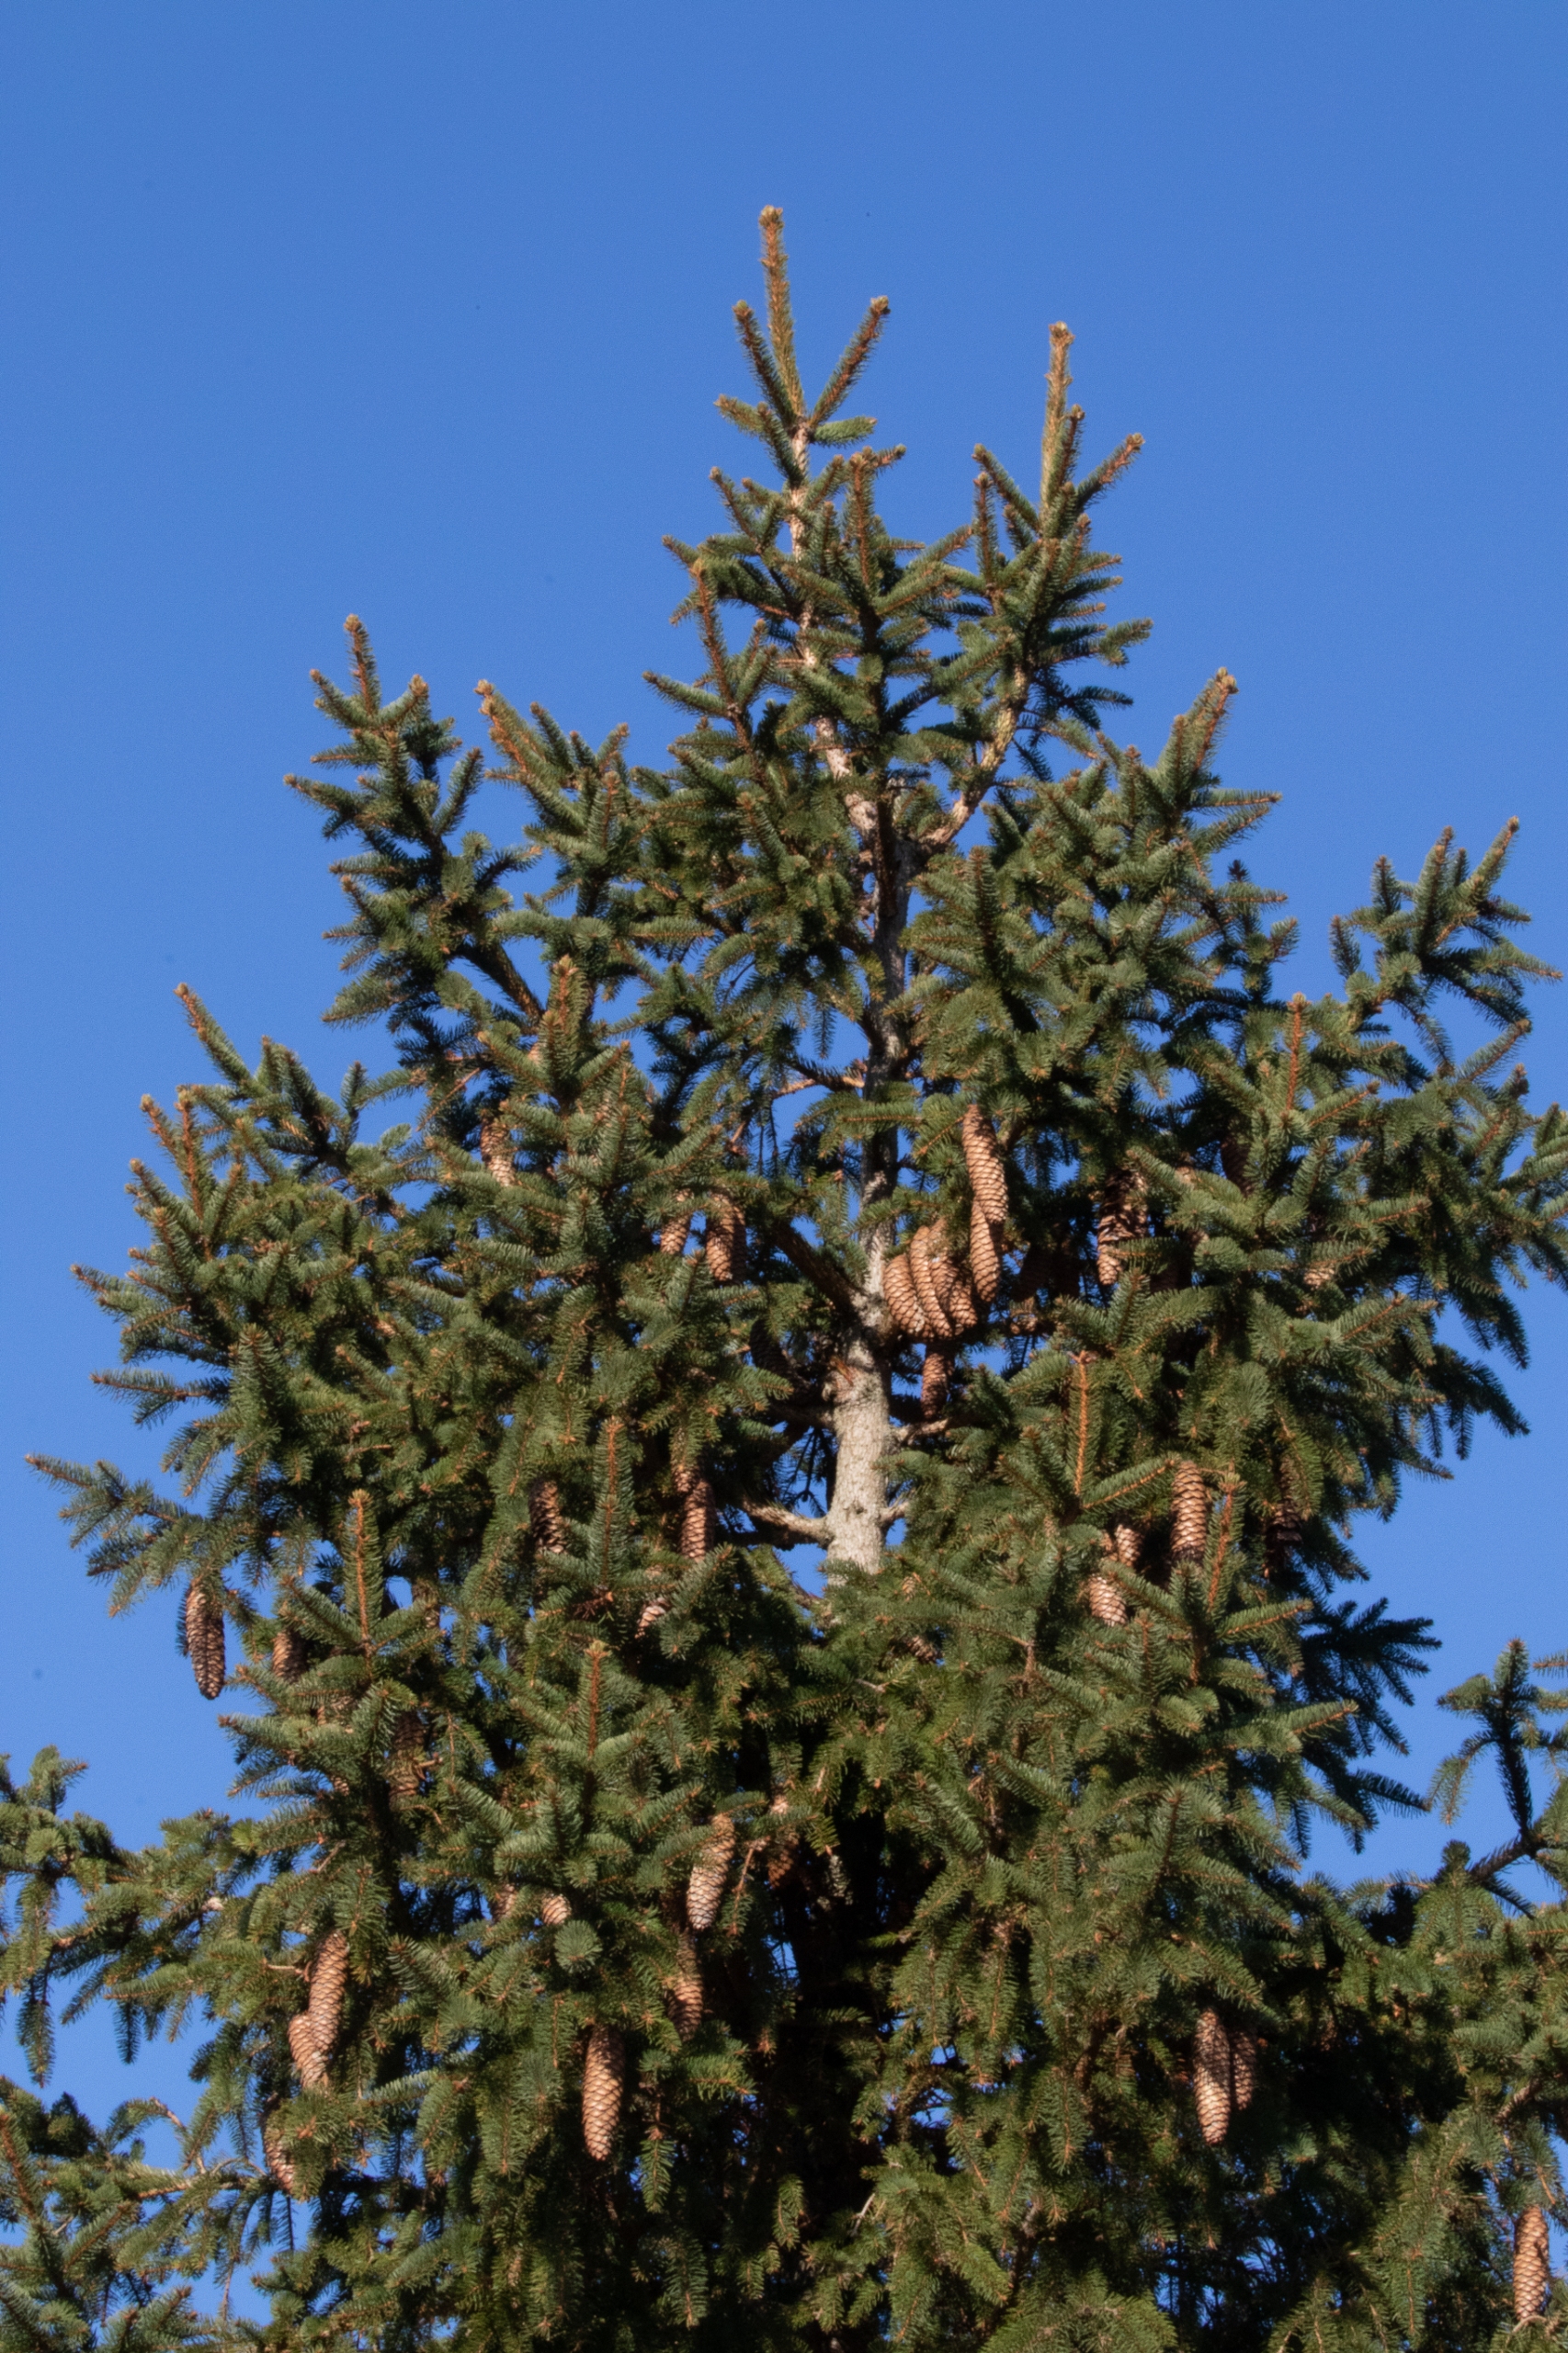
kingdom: Plantae
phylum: Tracheophyta
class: Pinopsida
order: Pinales
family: Pinaceae
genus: Picea
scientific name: Picea abies
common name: Rød-gran
